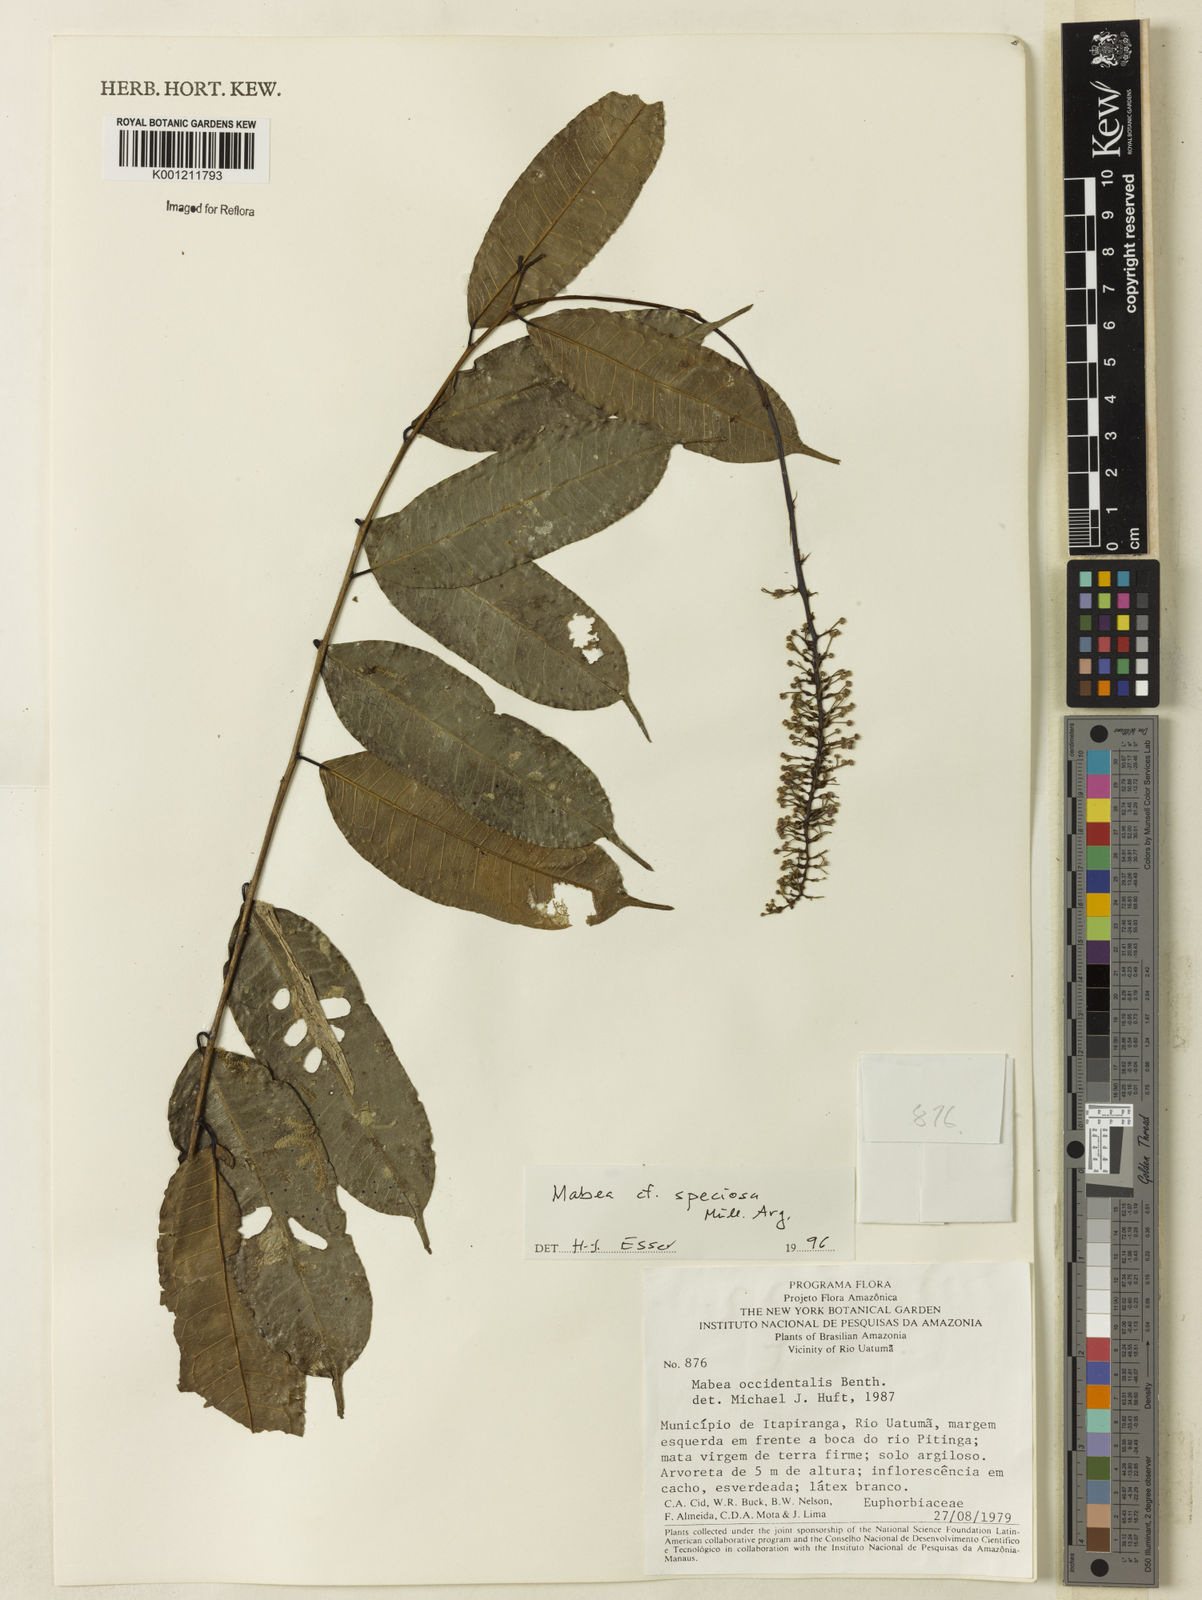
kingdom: Plantae
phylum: Tracheophyta
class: Magnoliopsida
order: Malpighiales
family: Euphorbiaceae
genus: Mabea
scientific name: Mabea
